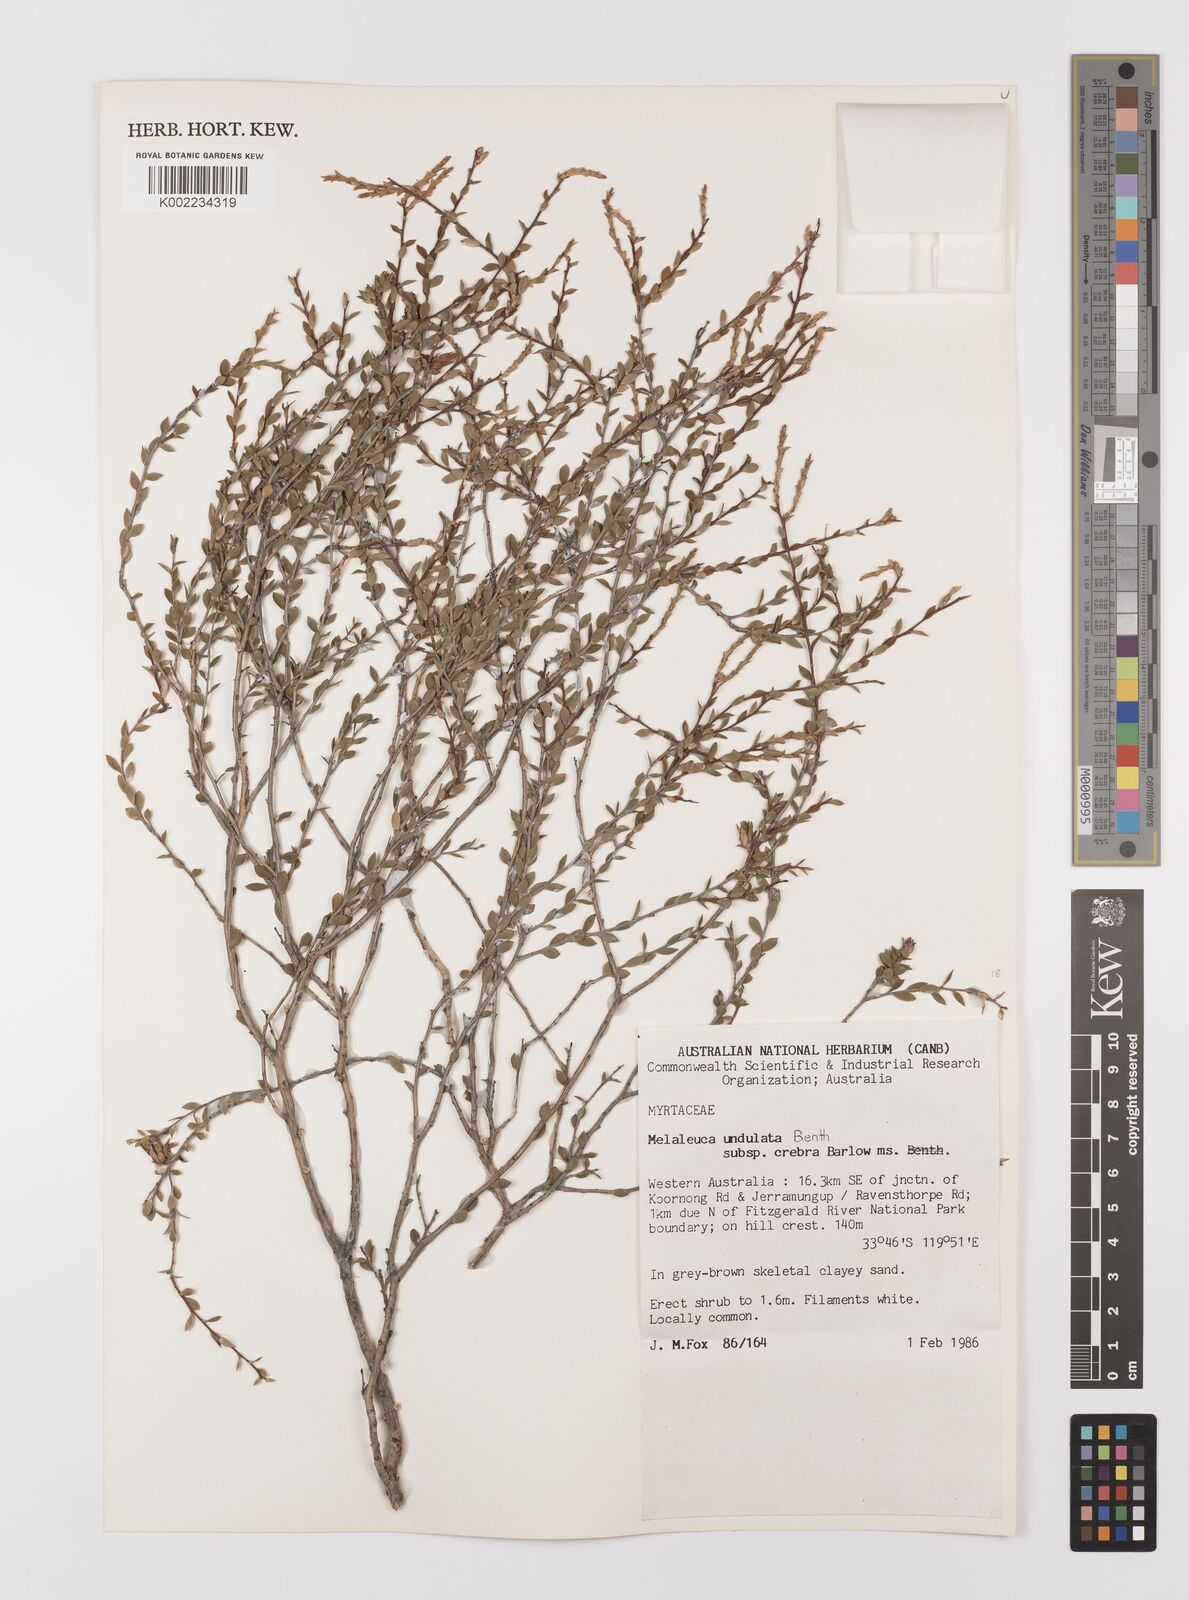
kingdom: Plantae
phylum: Tracheophyta
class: Magnoliopsida
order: Myrtales
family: Myrtaceae
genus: Melaleuca
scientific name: Melaleuca undulata
